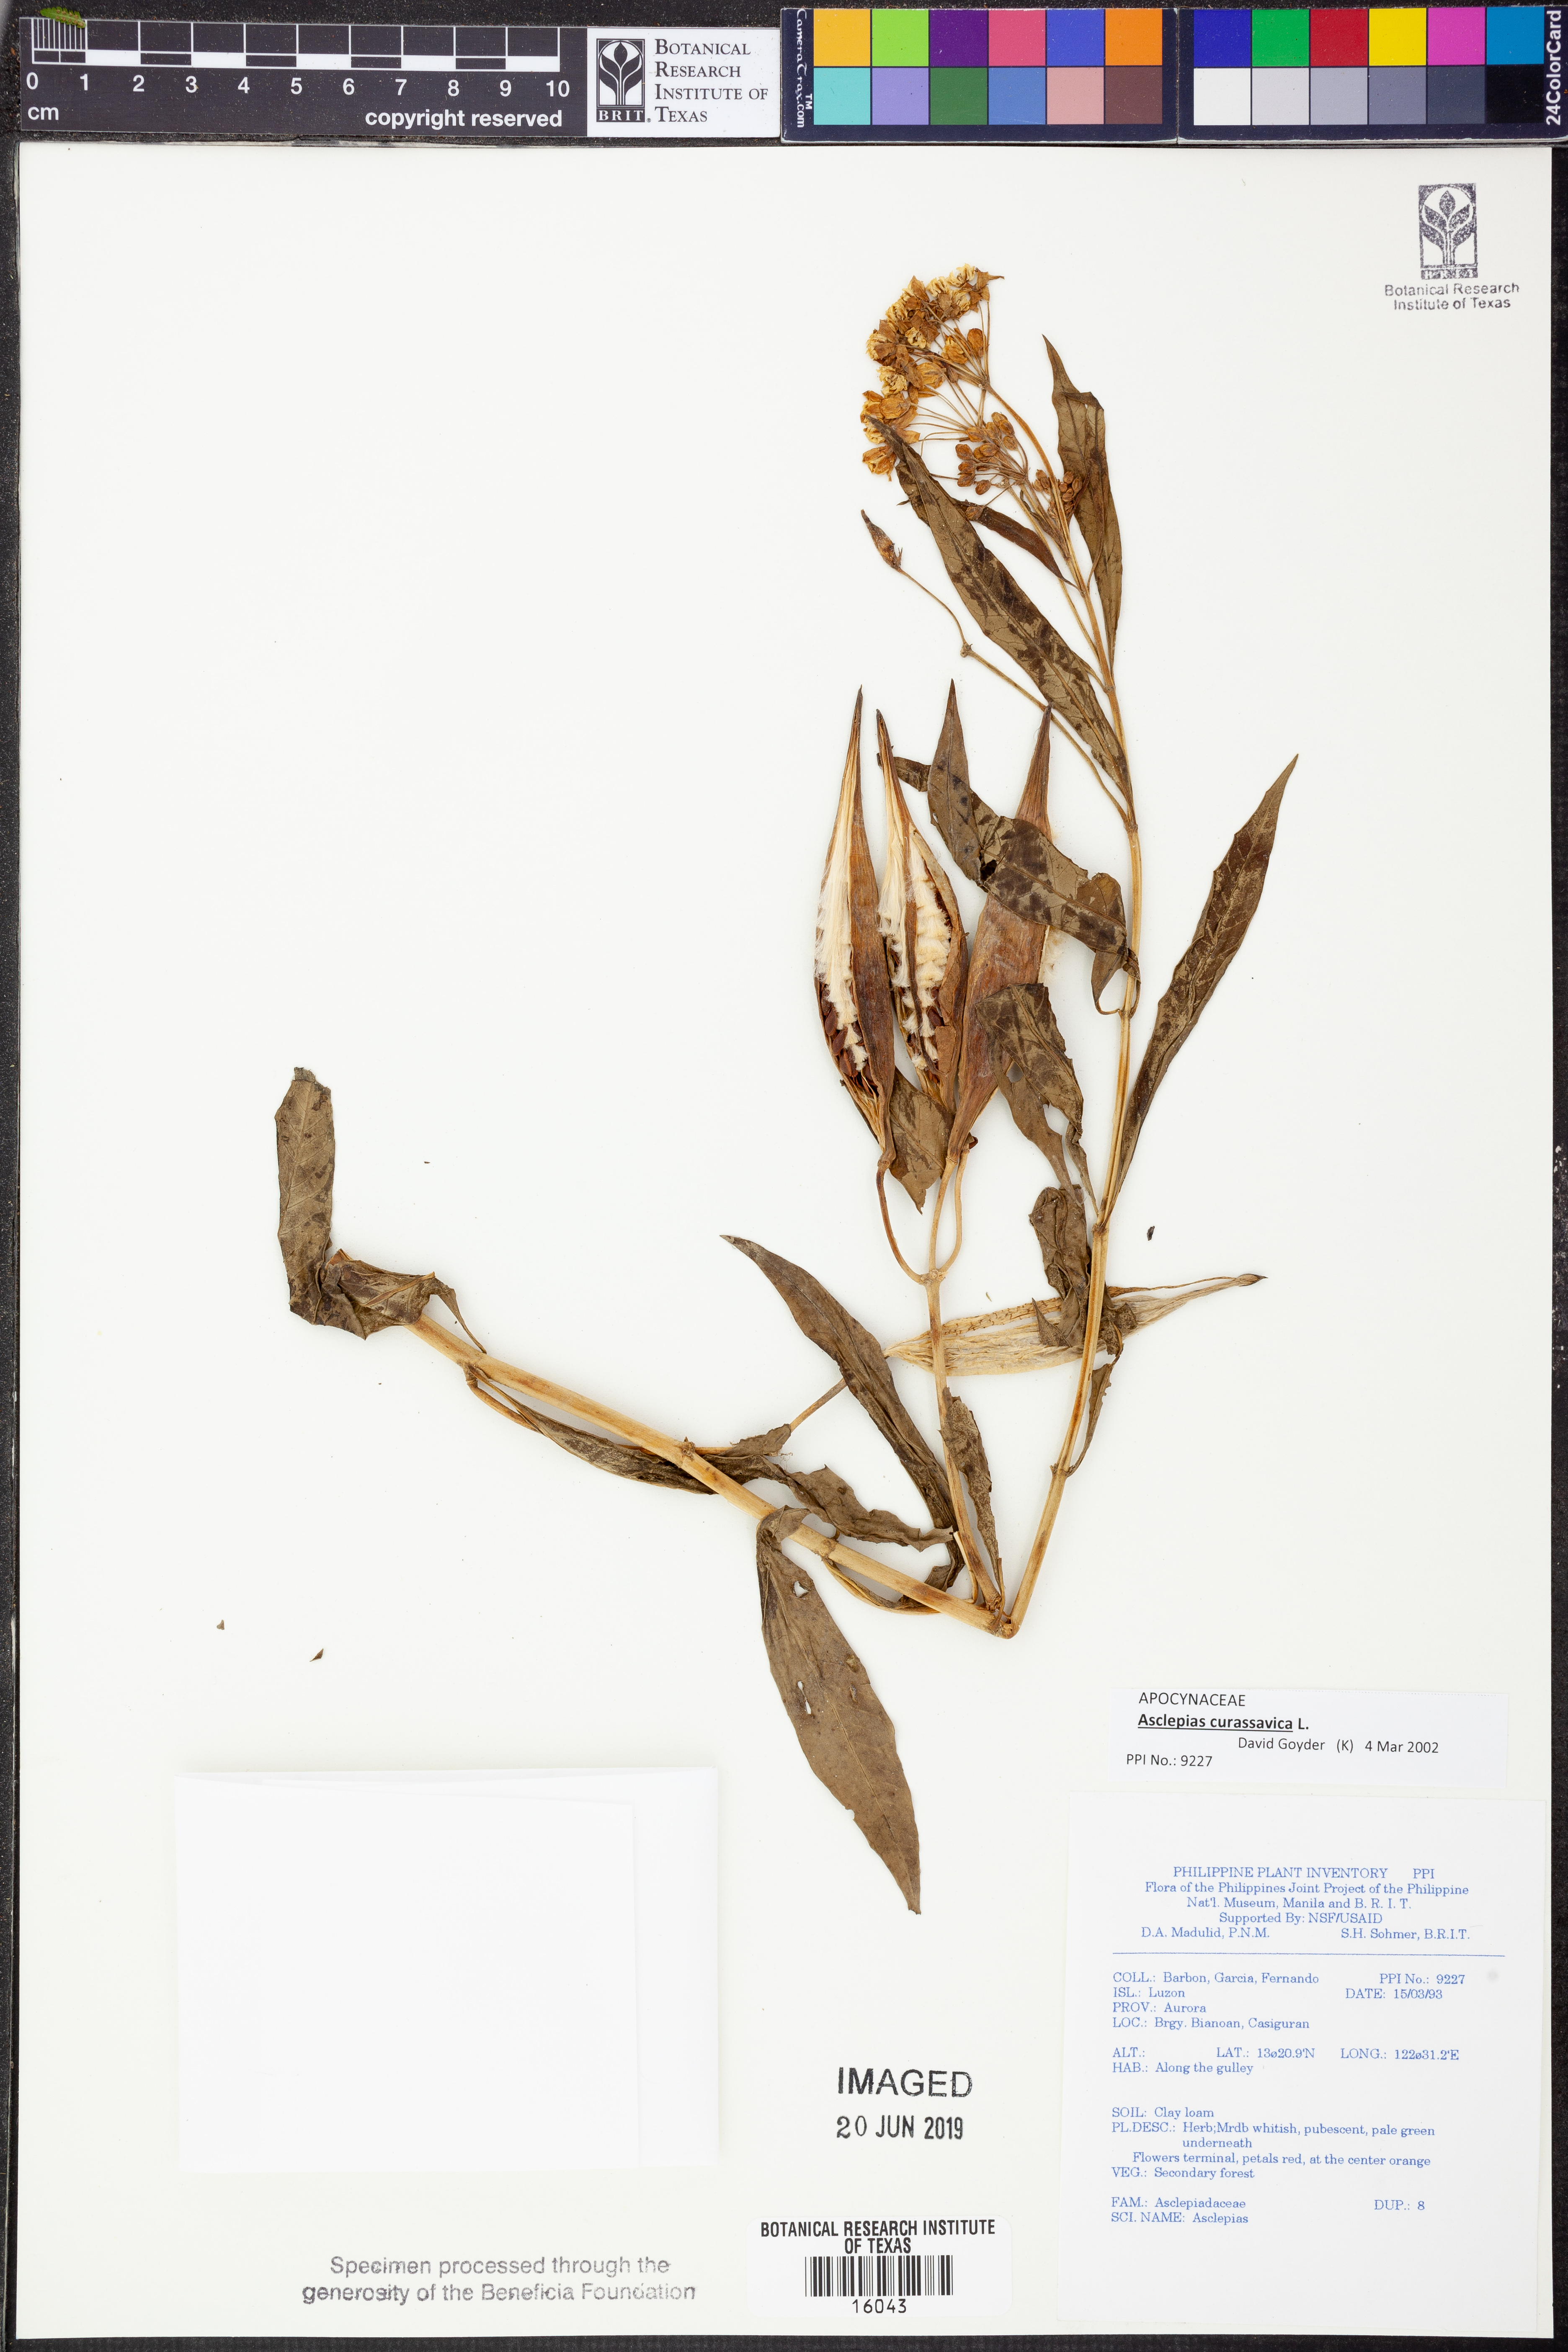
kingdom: Plantae
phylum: Tracheophyta
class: Magnoliopsida
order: Gentianales
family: Apocynaceae
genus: Asclepias
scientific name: Asclepias curassavica
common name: Bloodflower
